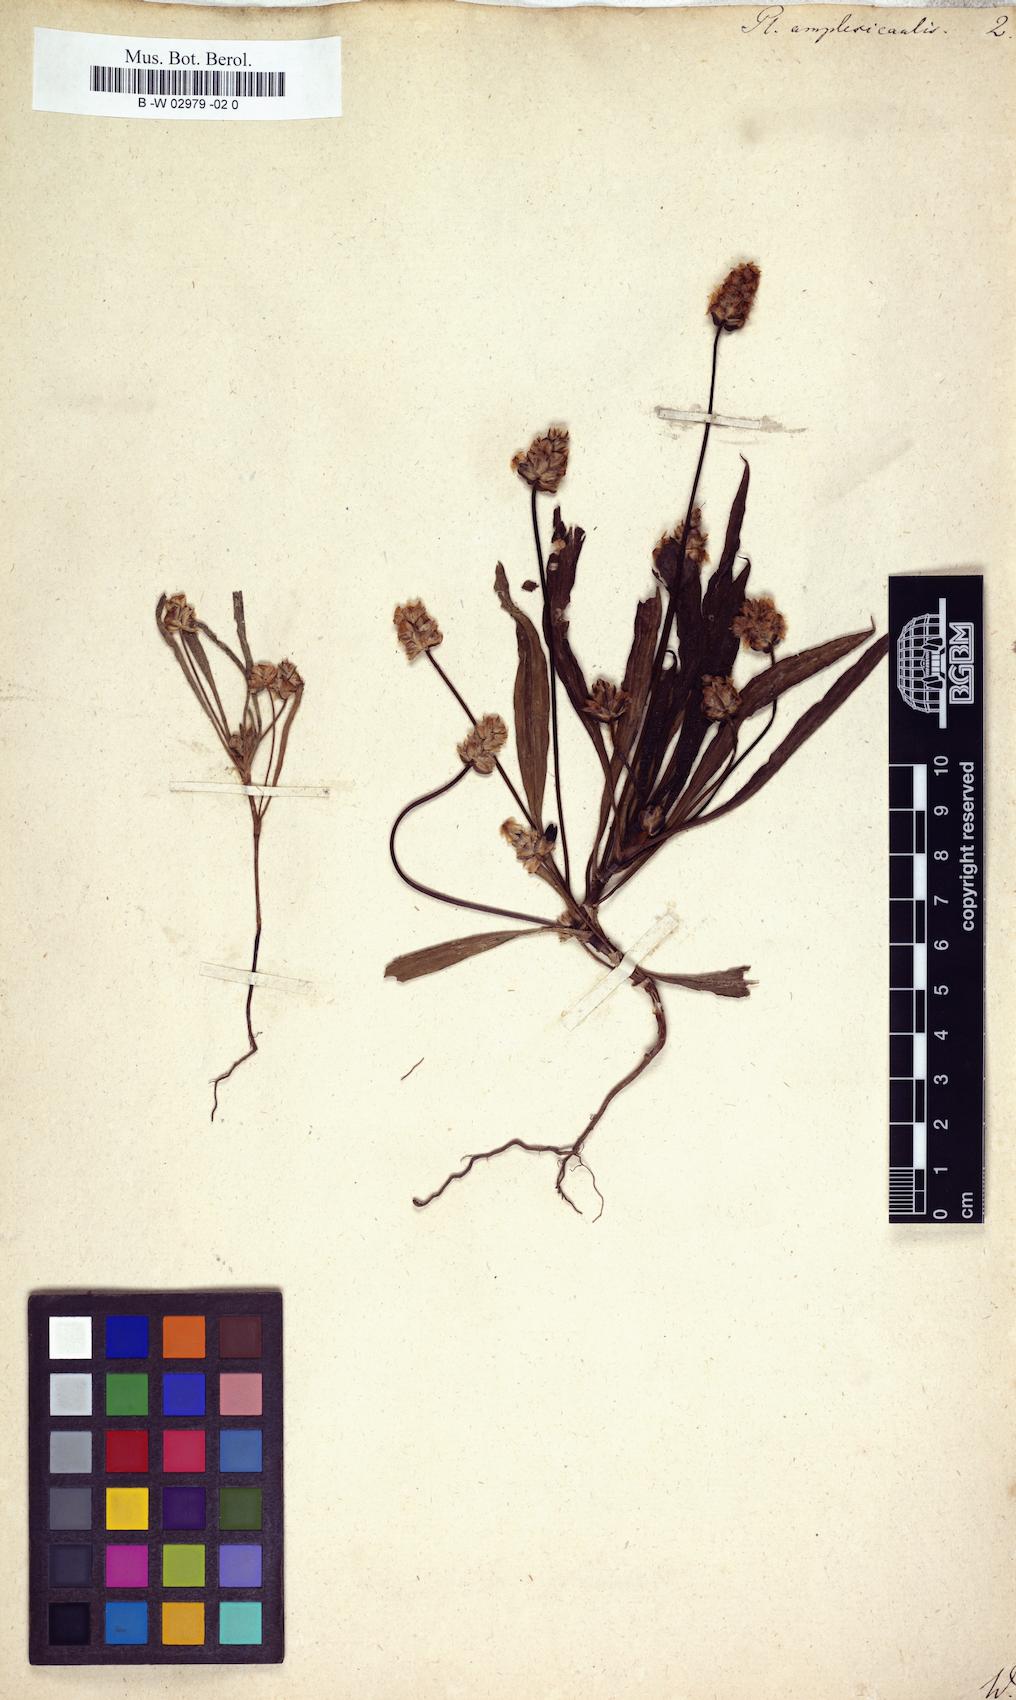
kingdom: Plantae
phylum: Tracheophyta
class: Magnoliopsida
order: Lamiales
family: Plantaginaceae
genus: Plantago
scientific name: Plantago amplexicaulis
